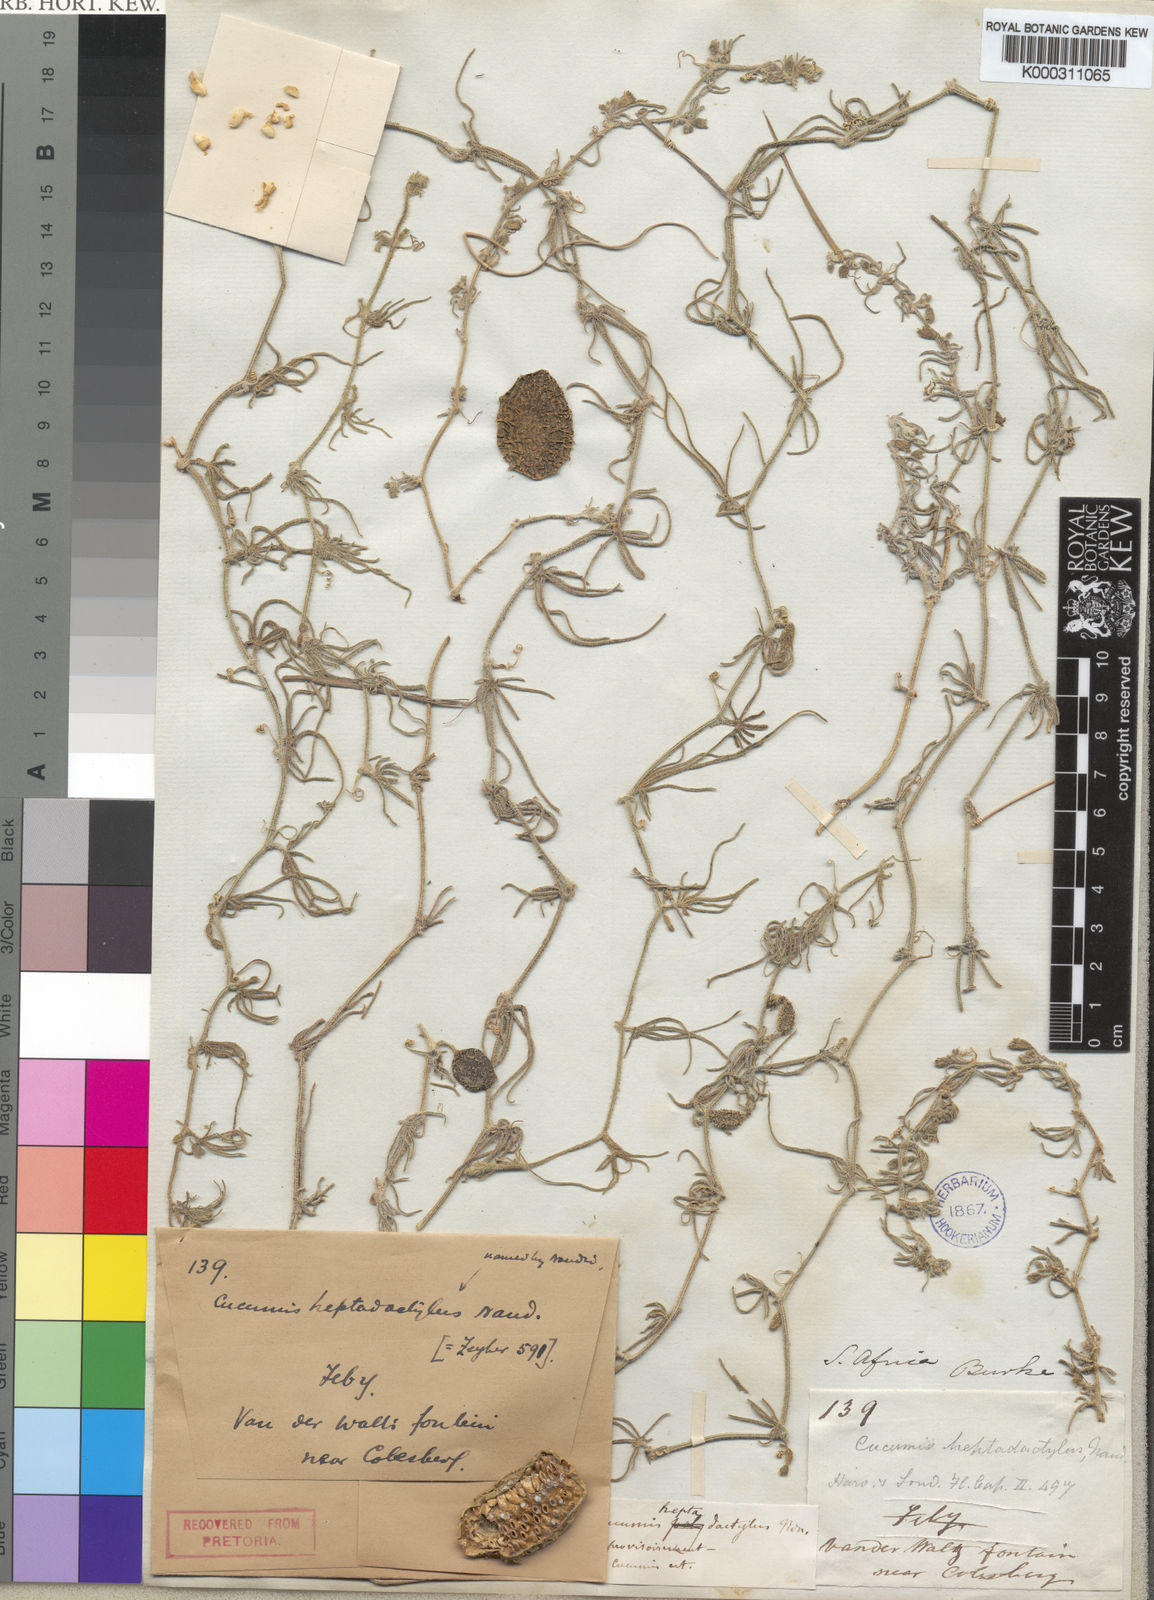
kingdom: Plantae
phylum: Tracheophyta
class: Magnoliopsida
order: Cucurbitales
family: Cucurbitaceae
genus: Cucumis
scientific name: Cucumis heptadactylus
